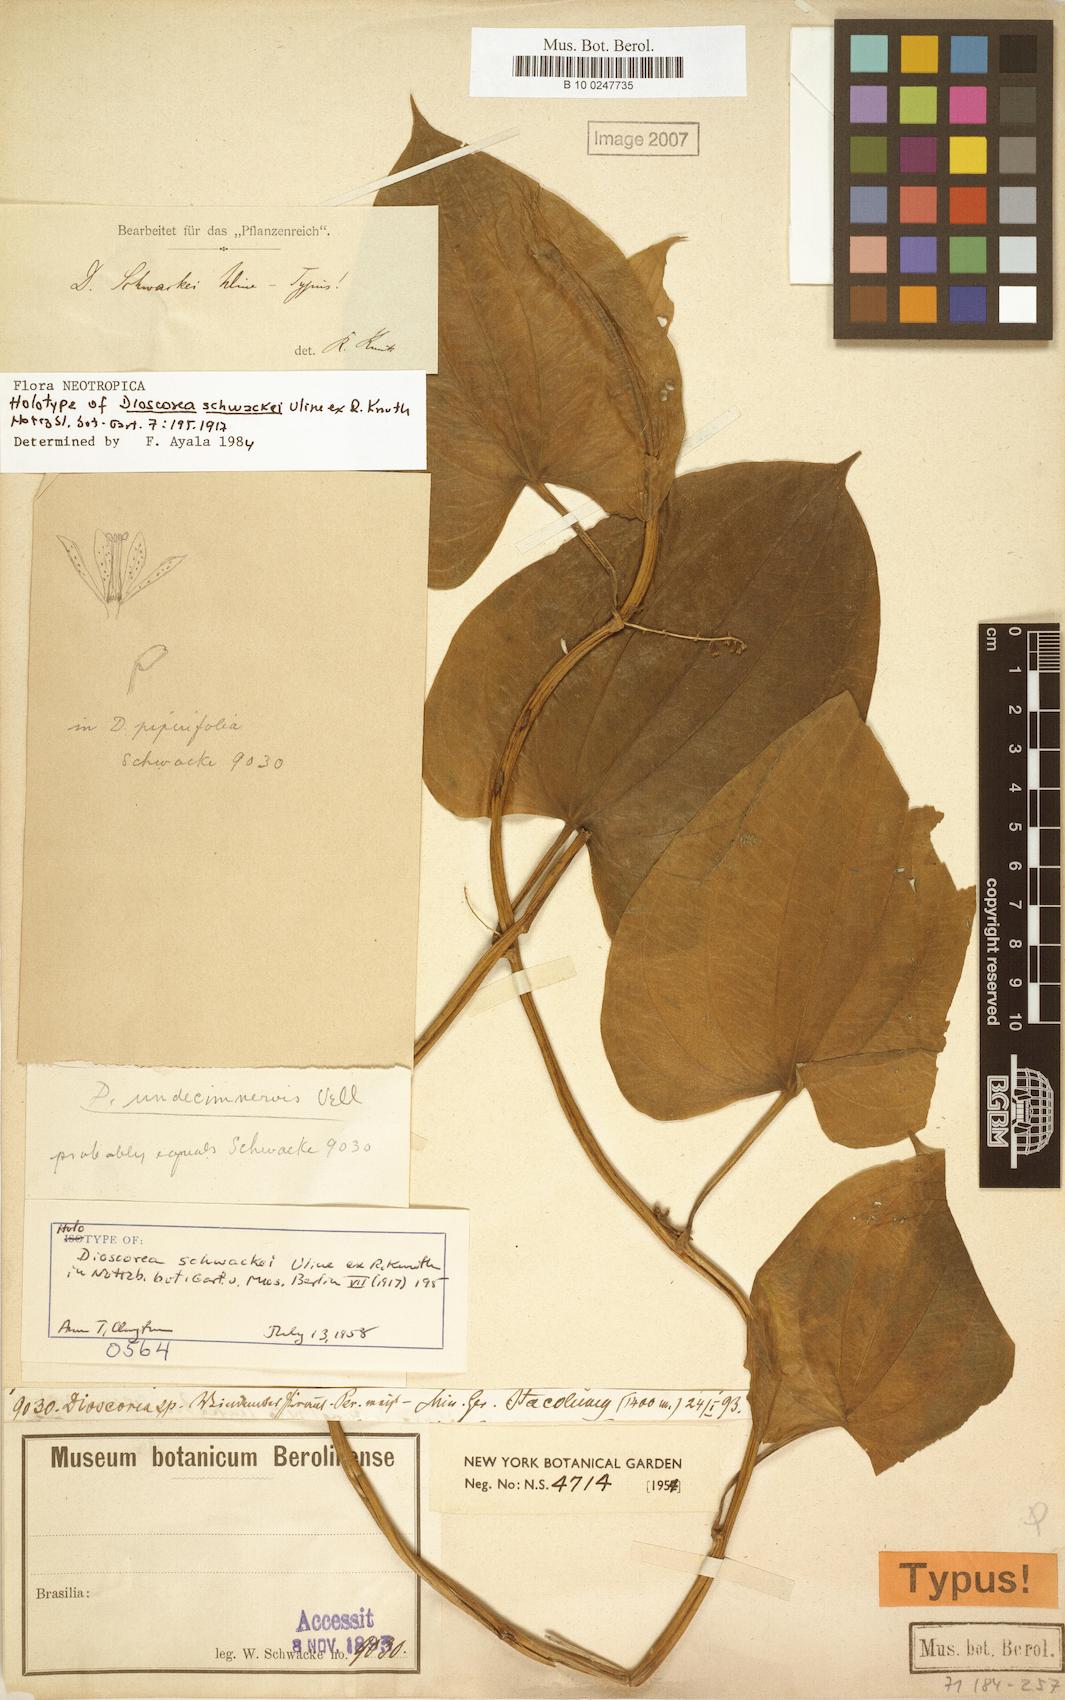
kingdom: Plantae
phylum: Tracheophyta
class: Liliopsida
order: Dioscoreales
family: Dioscoreaceae
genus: Dioscorea
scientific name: Dioscorea schwackei
